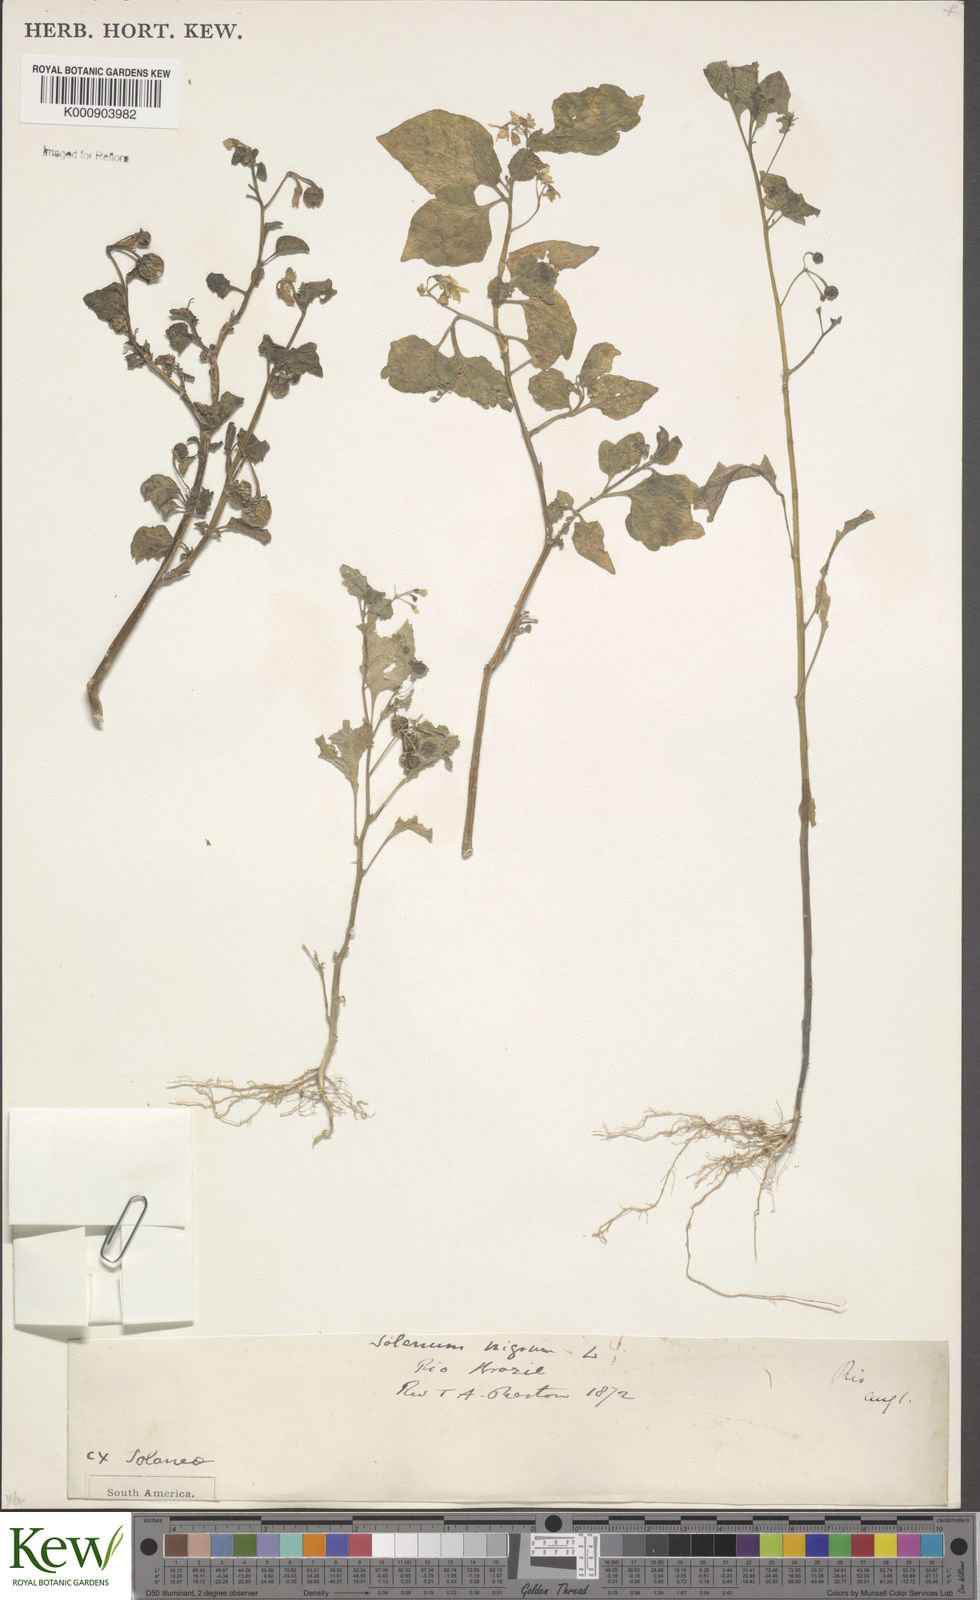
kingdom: Plantae
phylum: Tracheophyta
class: Magnoliopsida
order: Solanales
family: Solanaceae
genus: Solanum
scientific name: Solanum nigrum
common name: Black nightshade
